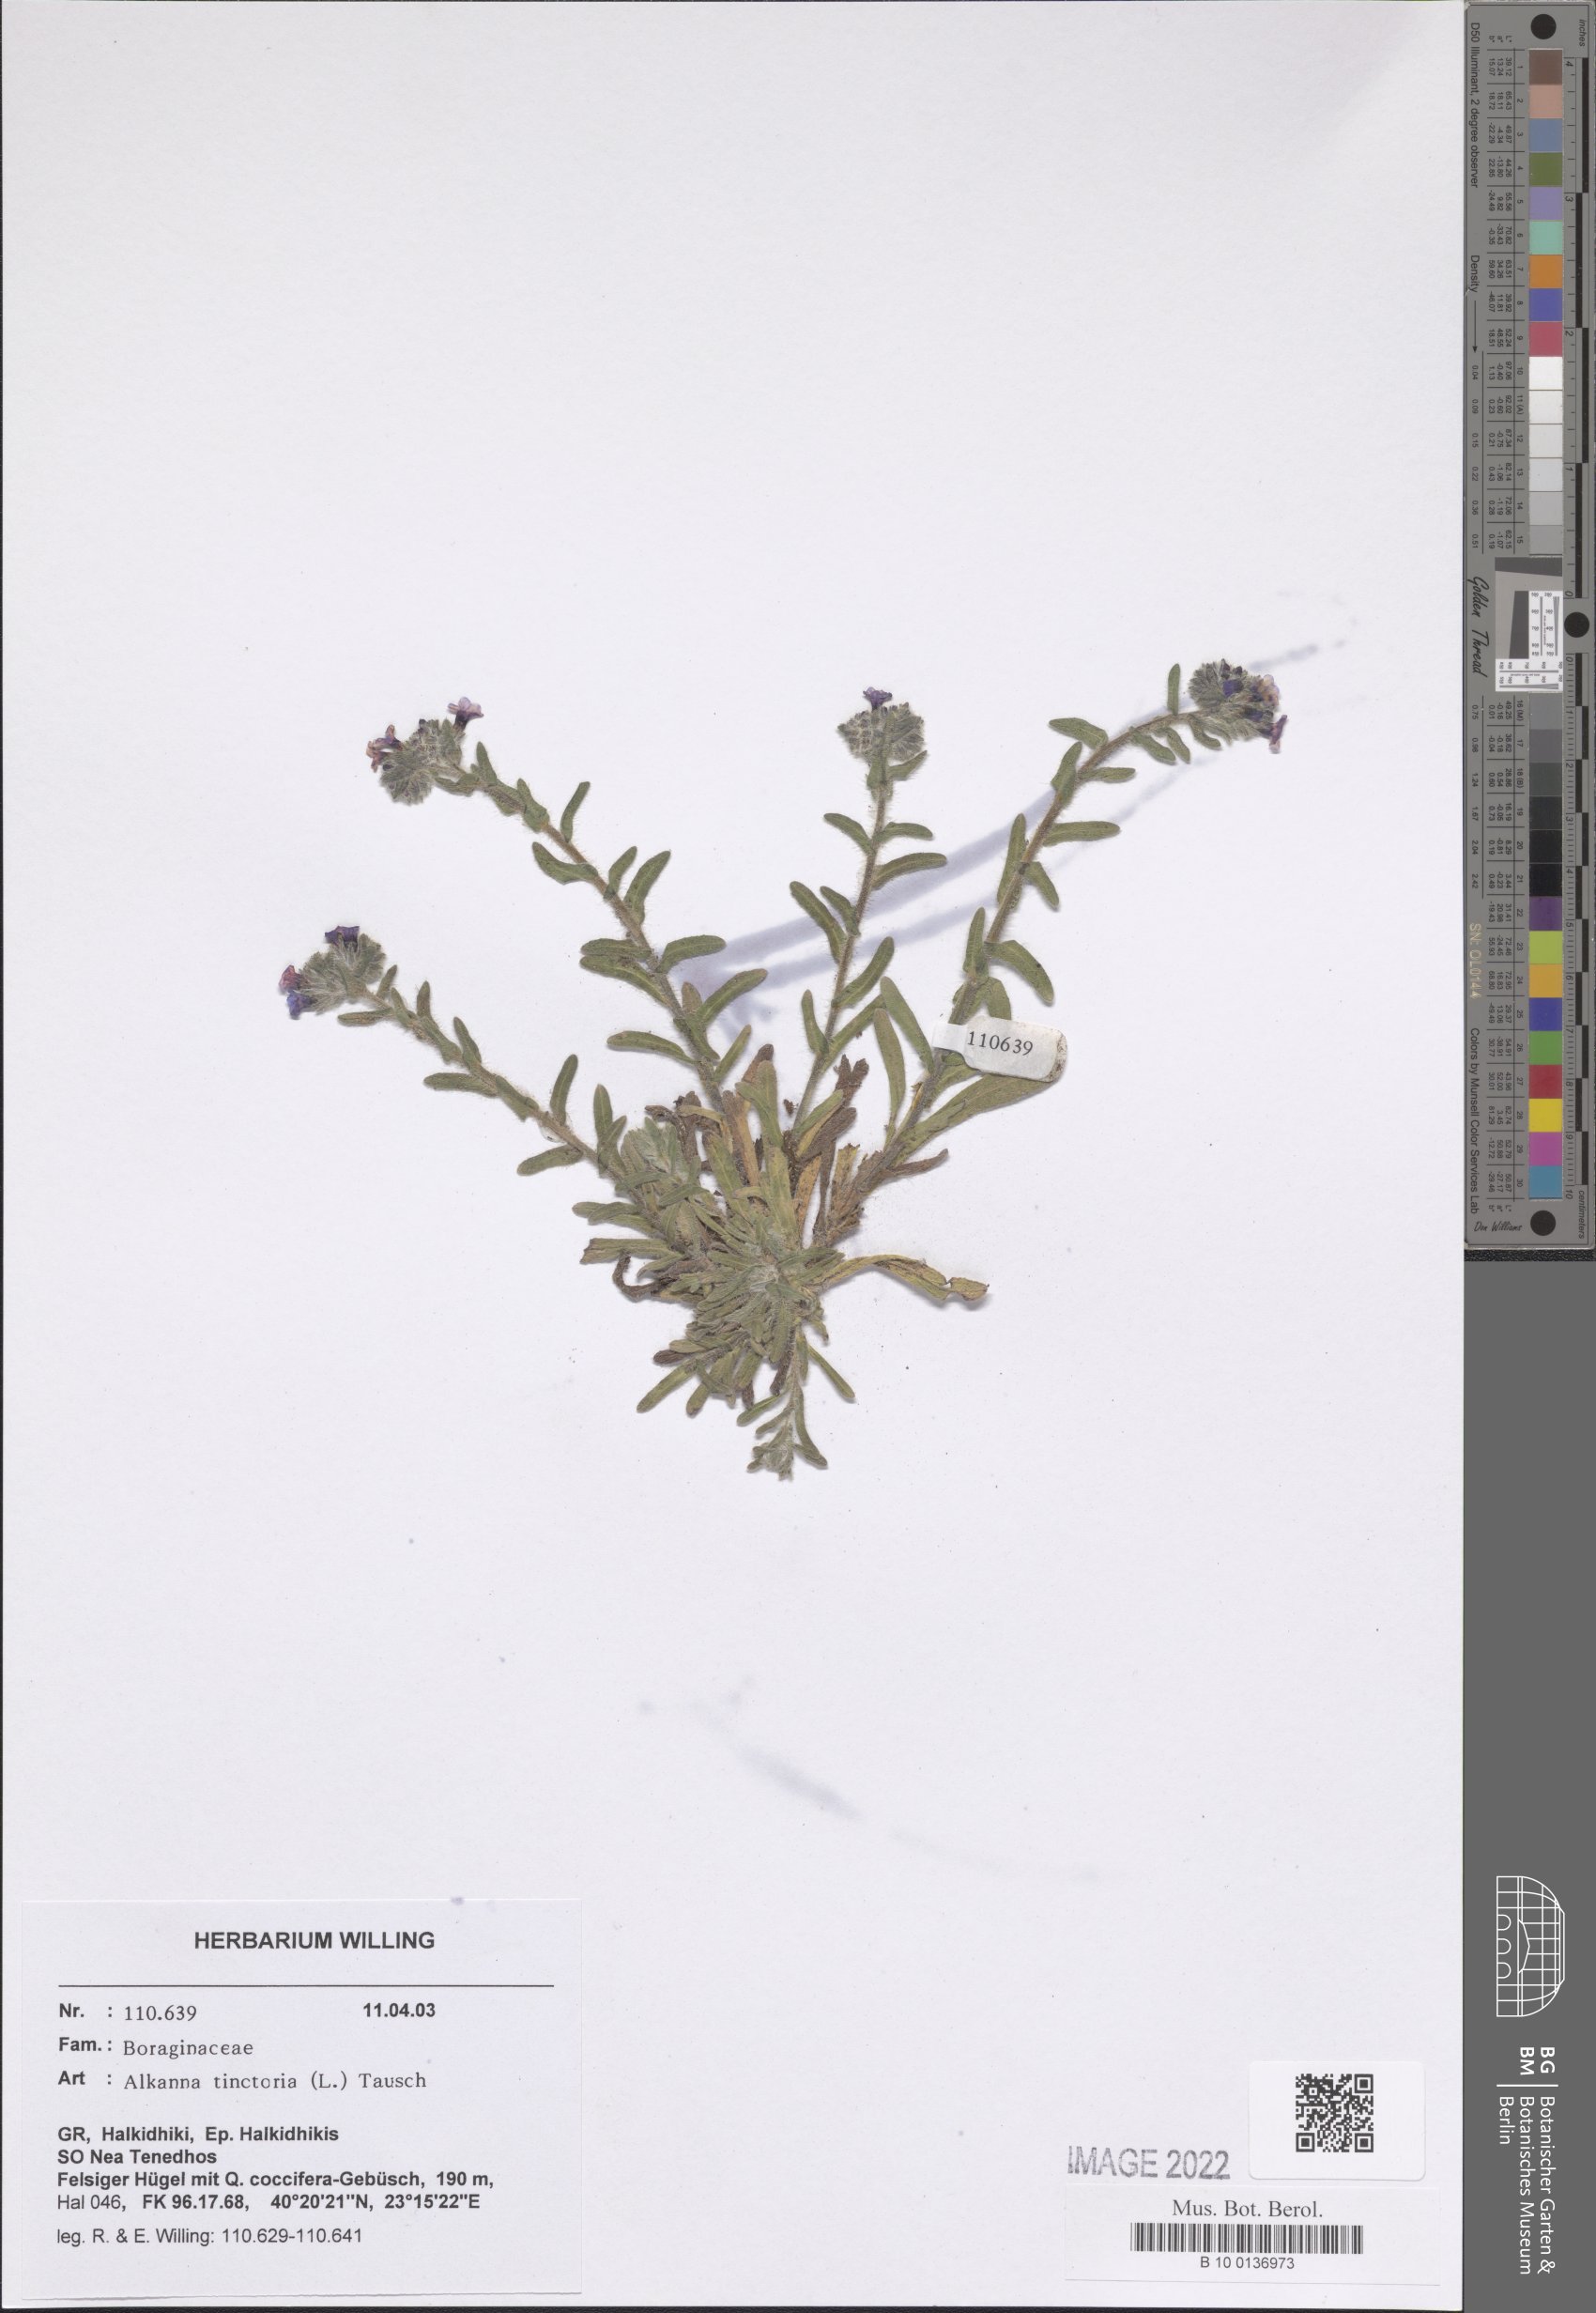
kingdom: Plantae
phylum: Tracheophyta
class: Magnoliopsida
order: Boraginales
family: Boraginaceae
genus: Alkanna
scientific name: Alkanna tinctoria
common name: Dyer's-alkanet
